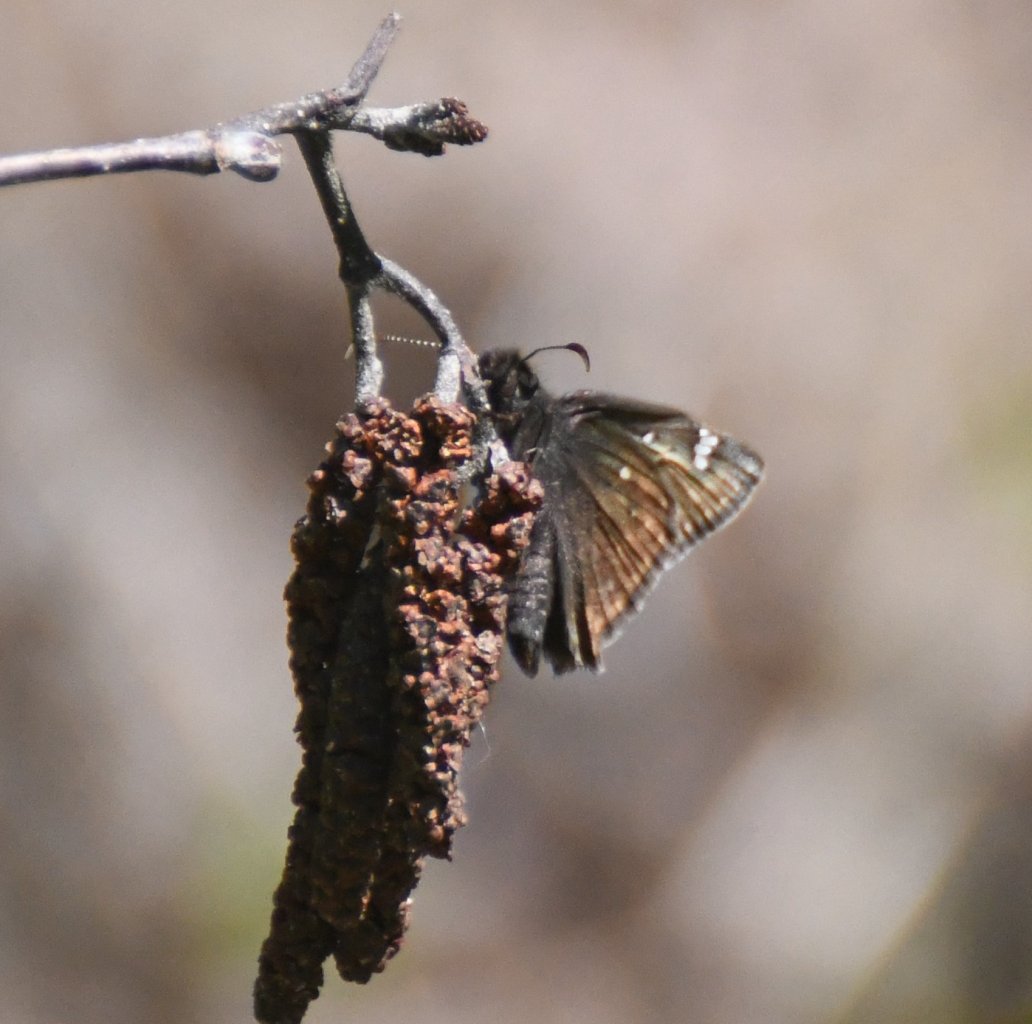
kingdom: Animalia
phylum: Arthropoda
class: Insecta
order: Lepidoptera
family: Hesperiidae
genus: Gesta
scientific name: Gesta
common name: Juvenal's Duskywing
